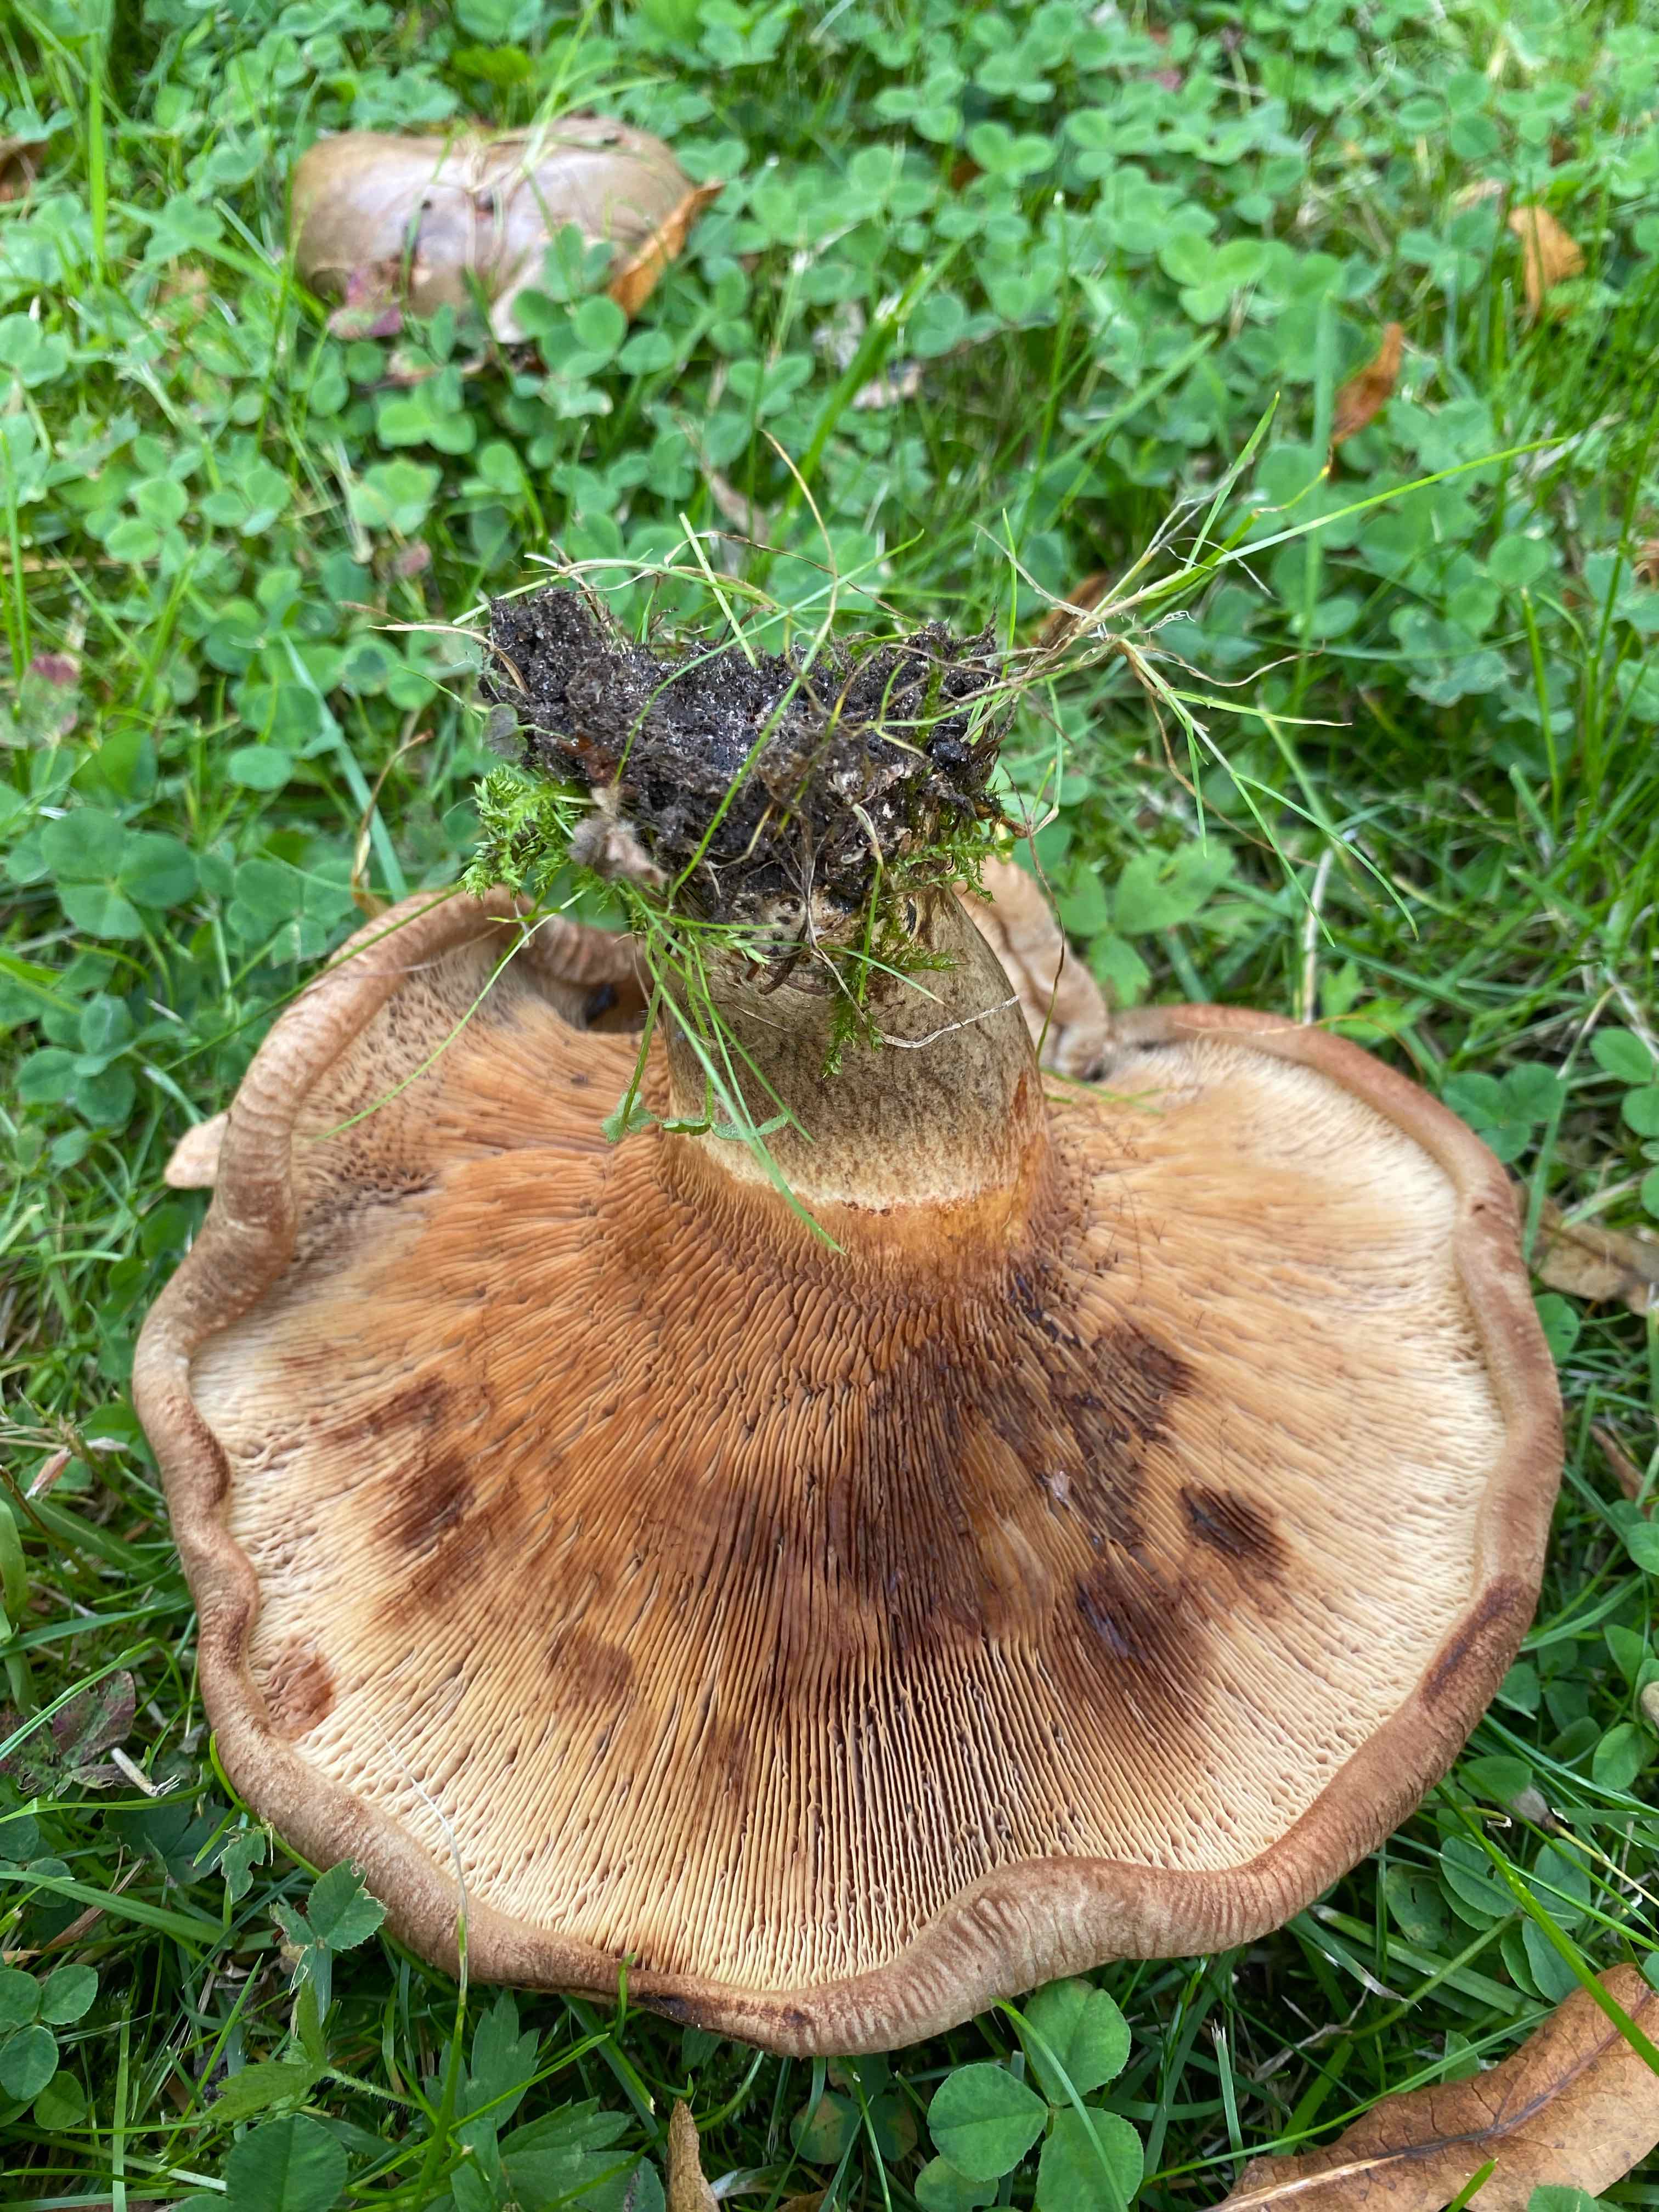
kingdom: Fungi
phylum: Basidiomycota
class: Agaricomycetes
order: Boletales
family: Paxillaceae
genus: Paxillus
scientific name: Paxillus involutus
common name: almindelig netbladhat
